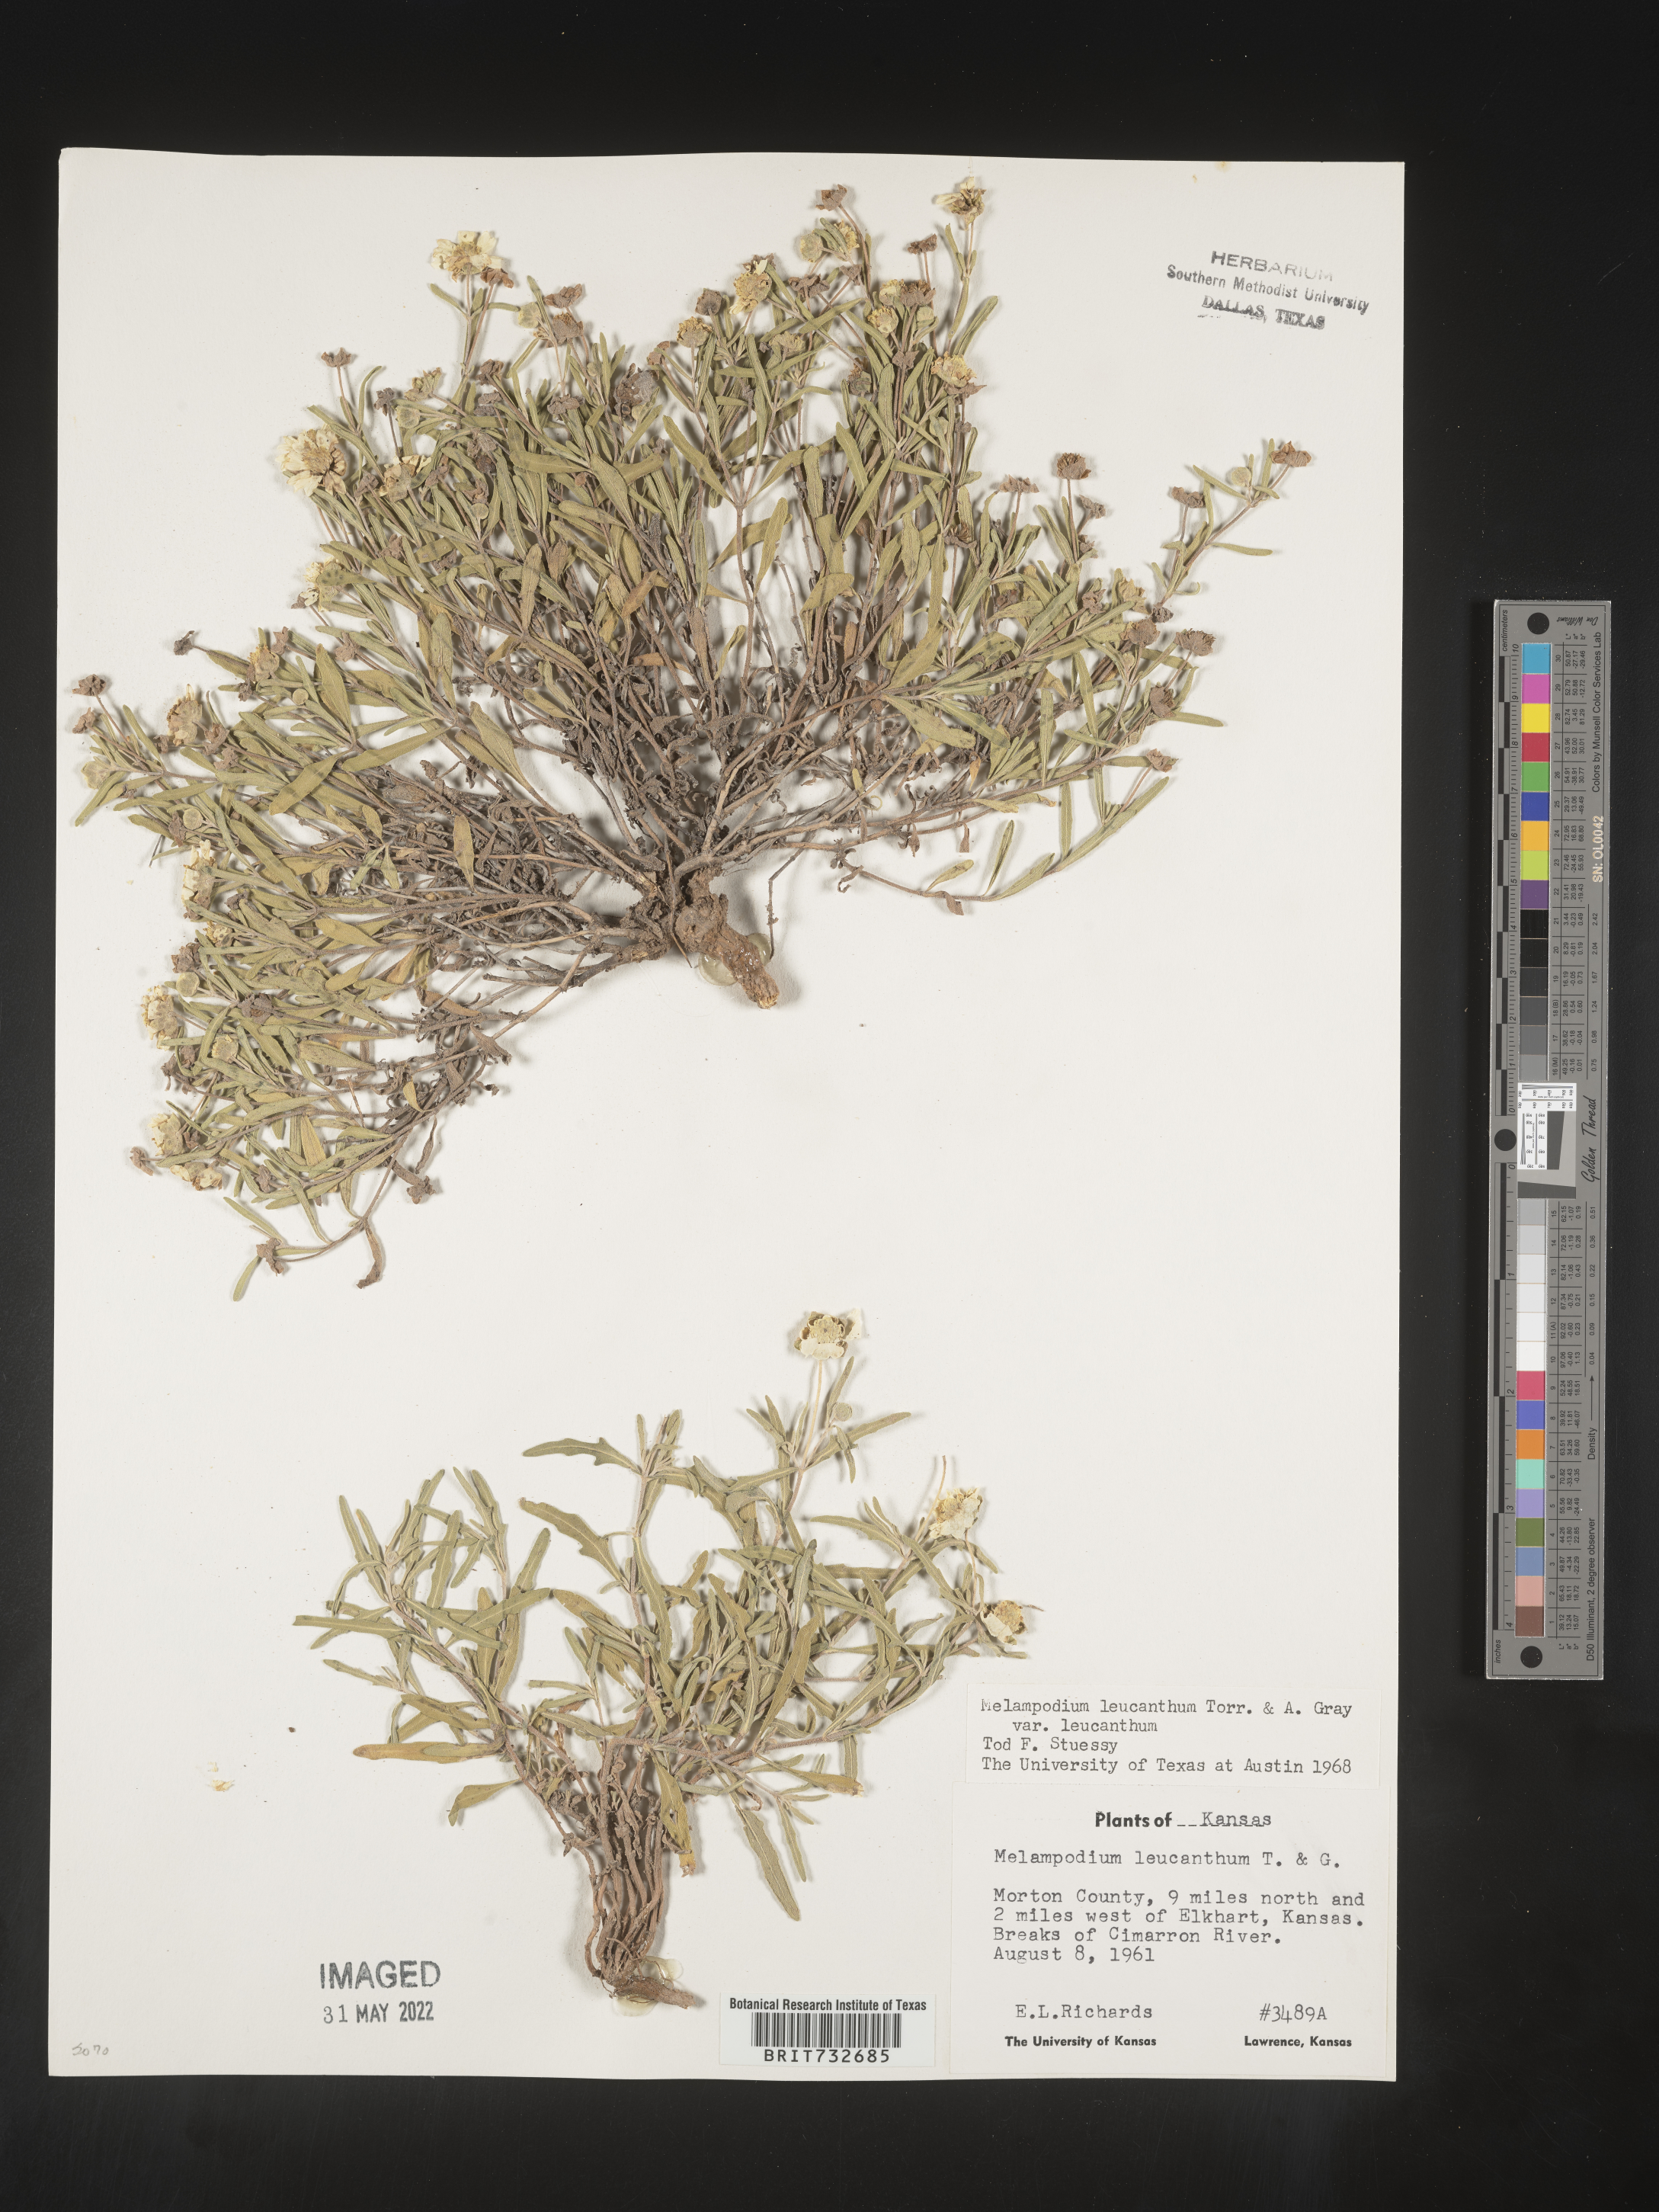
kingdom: Plantae
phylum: Tracheophyta
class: Magnoliopsida
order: Asterales
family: Asteraceae
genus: Melampodium
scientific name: Melampodium leucanthum
